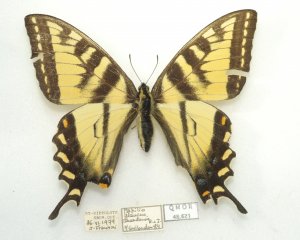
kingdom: Animalia
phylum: Arthropoda
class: Insecta
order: Lepidoptera
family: Papilionidae
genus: Pterourus
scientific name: Pterourus canadensis
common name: Canadian Tiger Swallowtail
